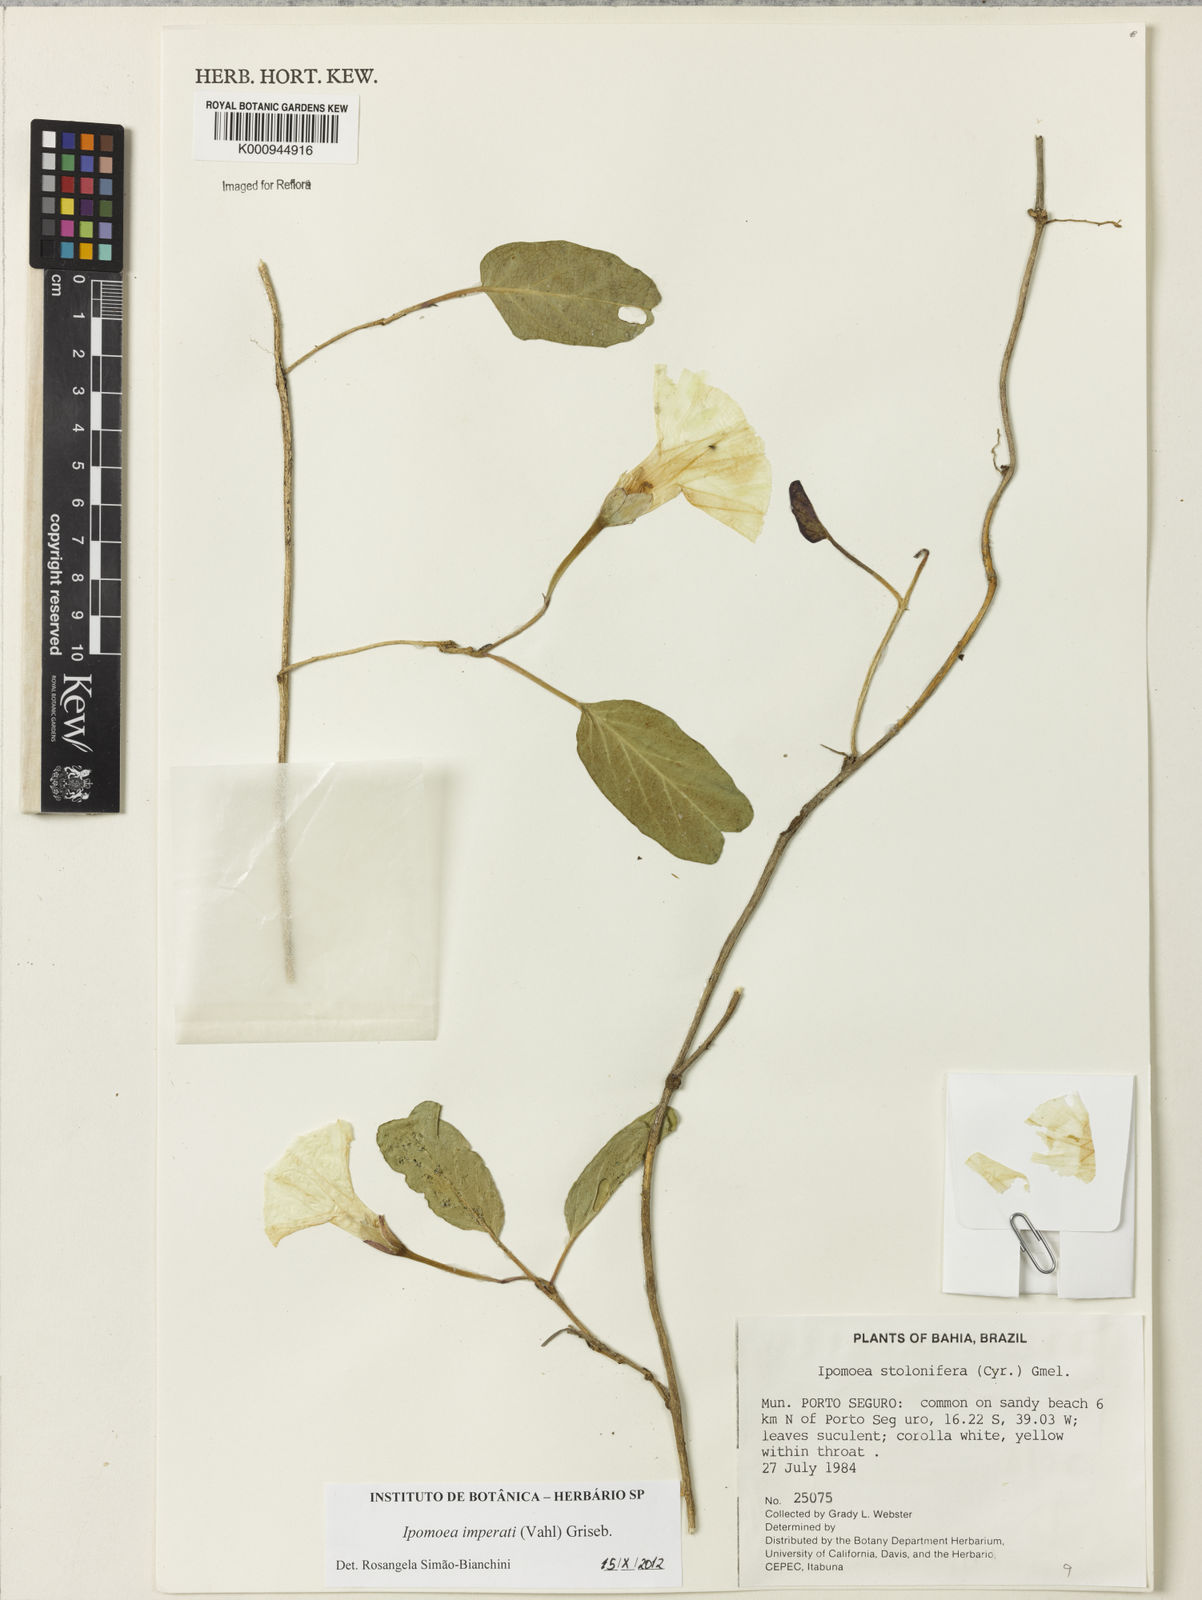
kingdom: Plantae
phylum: Tracheophyta
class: Magnoliopsida
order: Solanales
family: Convolvulaceae
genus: Ipomoea
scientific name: Ipomoea imperati
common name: Fiddle-leaf morning-glory
